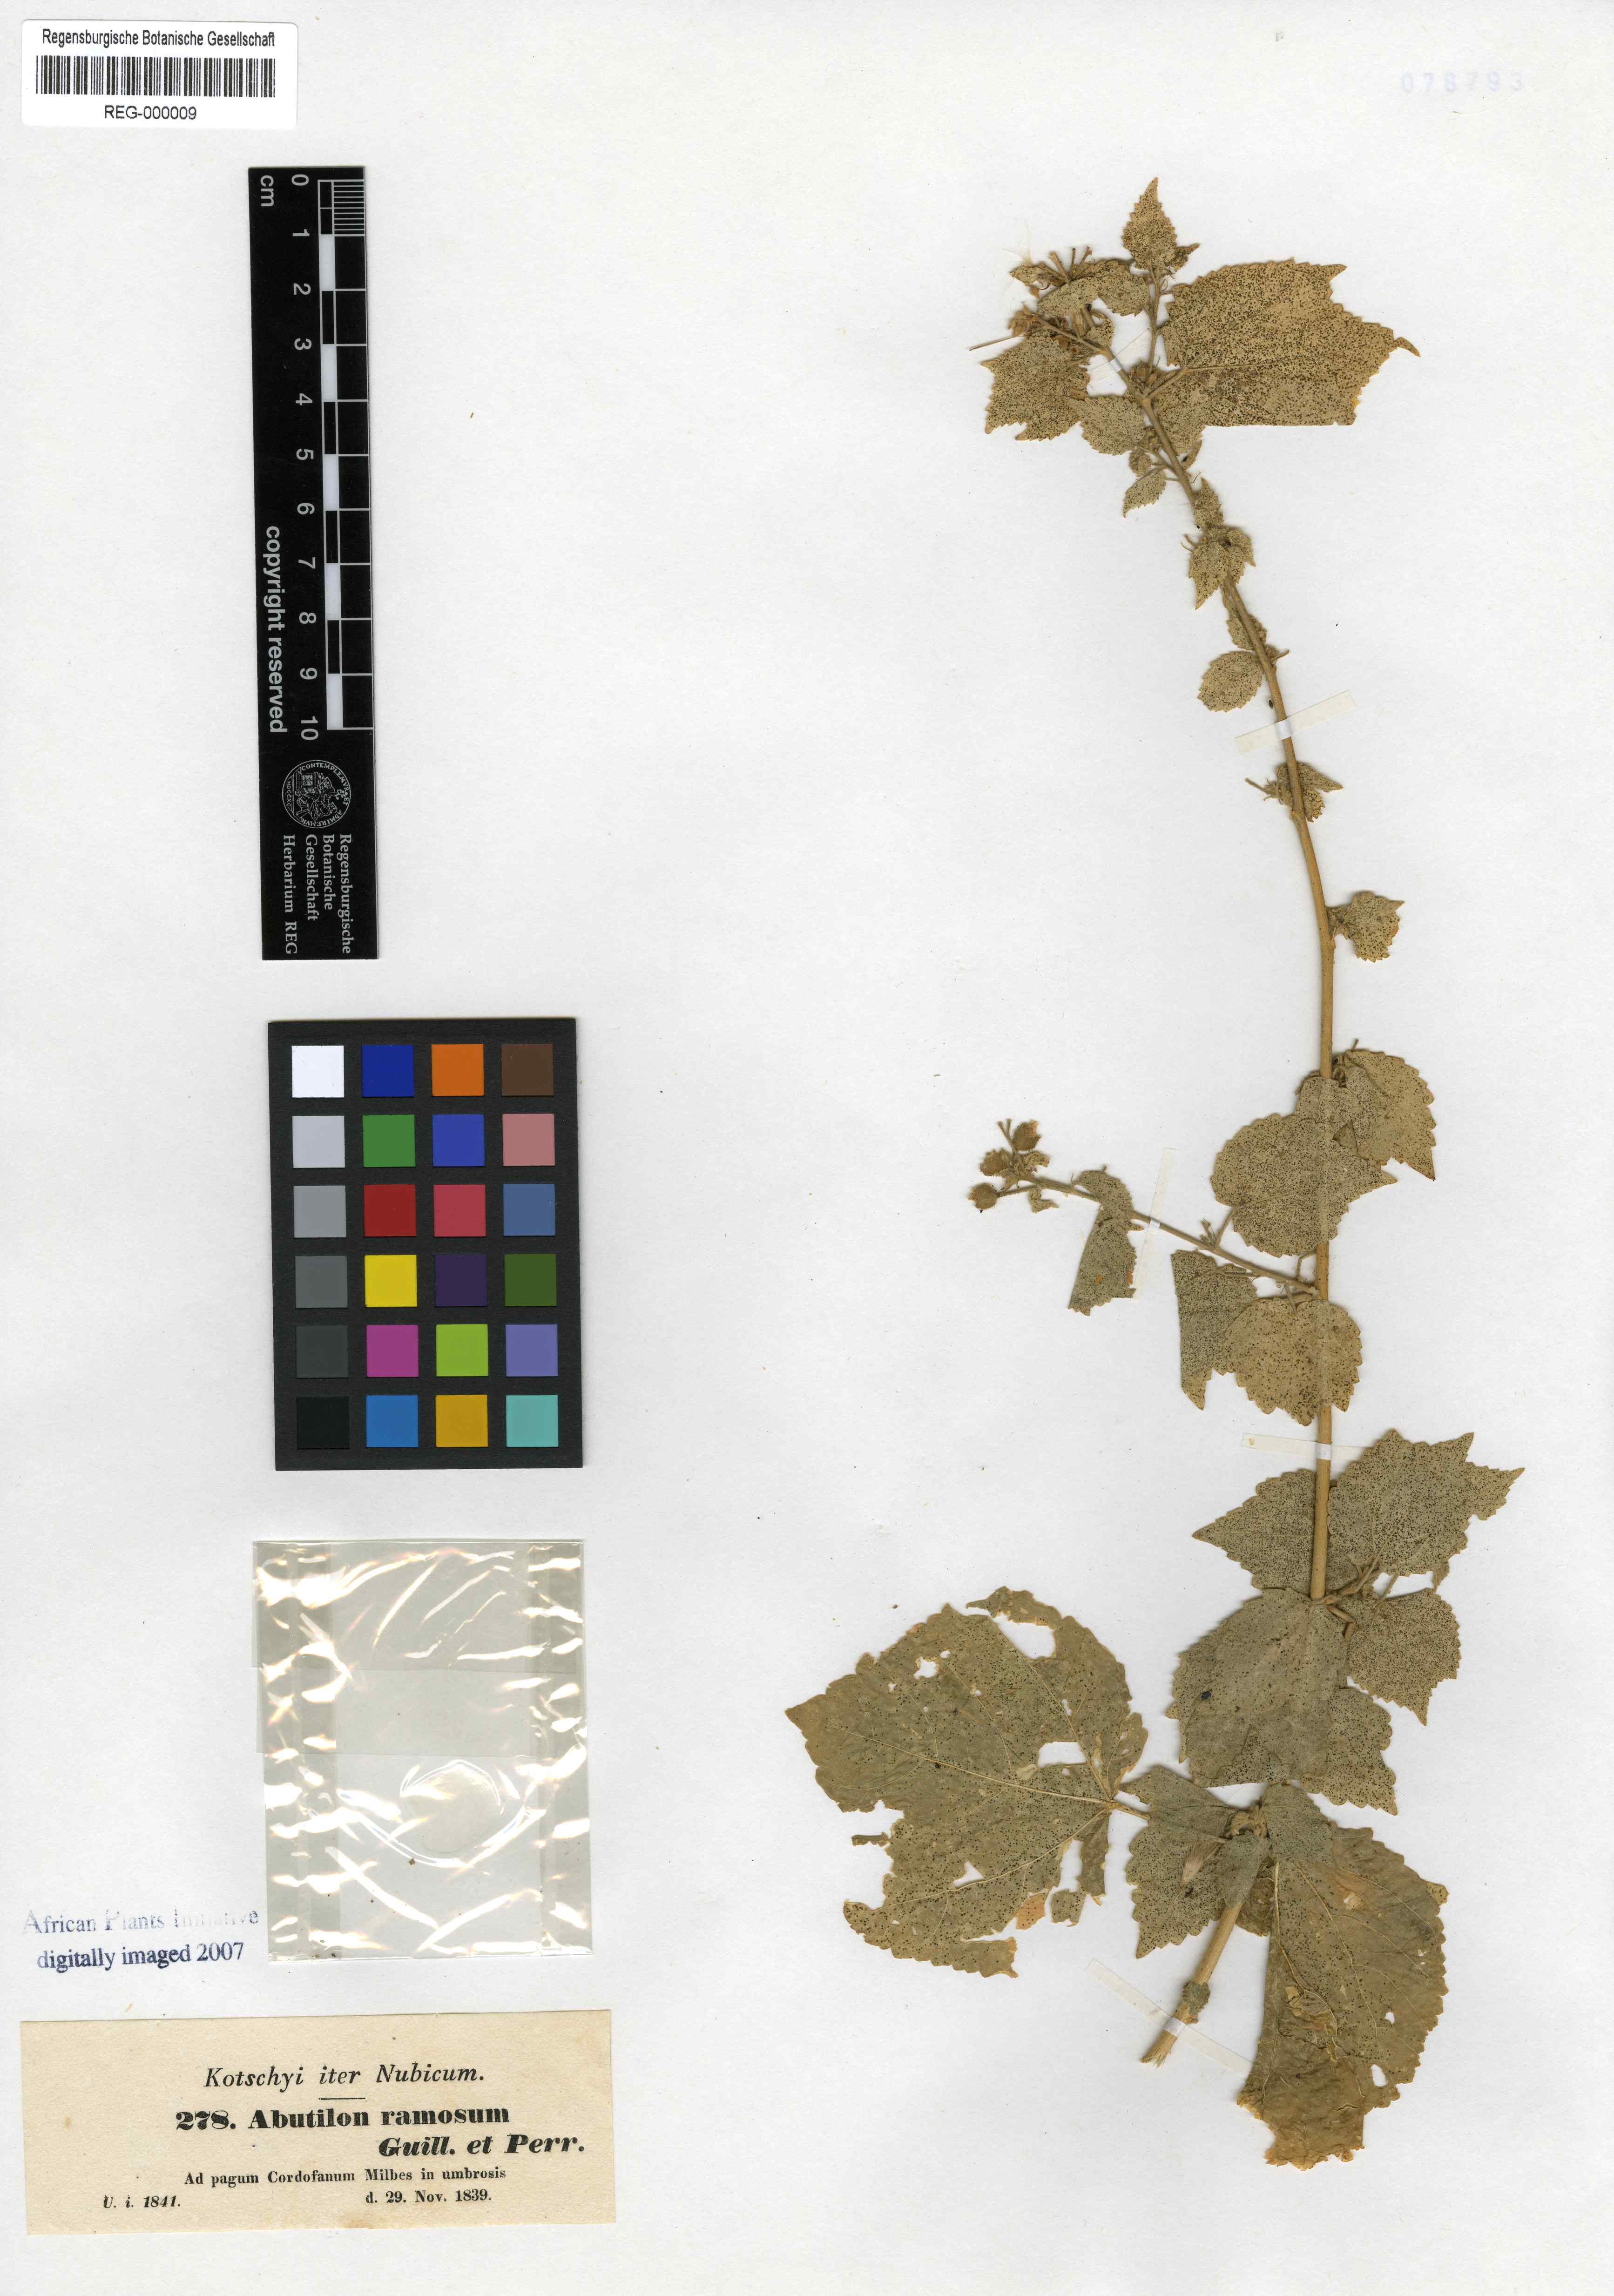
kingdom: Plantae
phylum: Tracheophyta
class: Magnoliopsida
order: Malvales
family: Malvaceae
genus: Abutilon
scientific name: Abutilon ramosum
